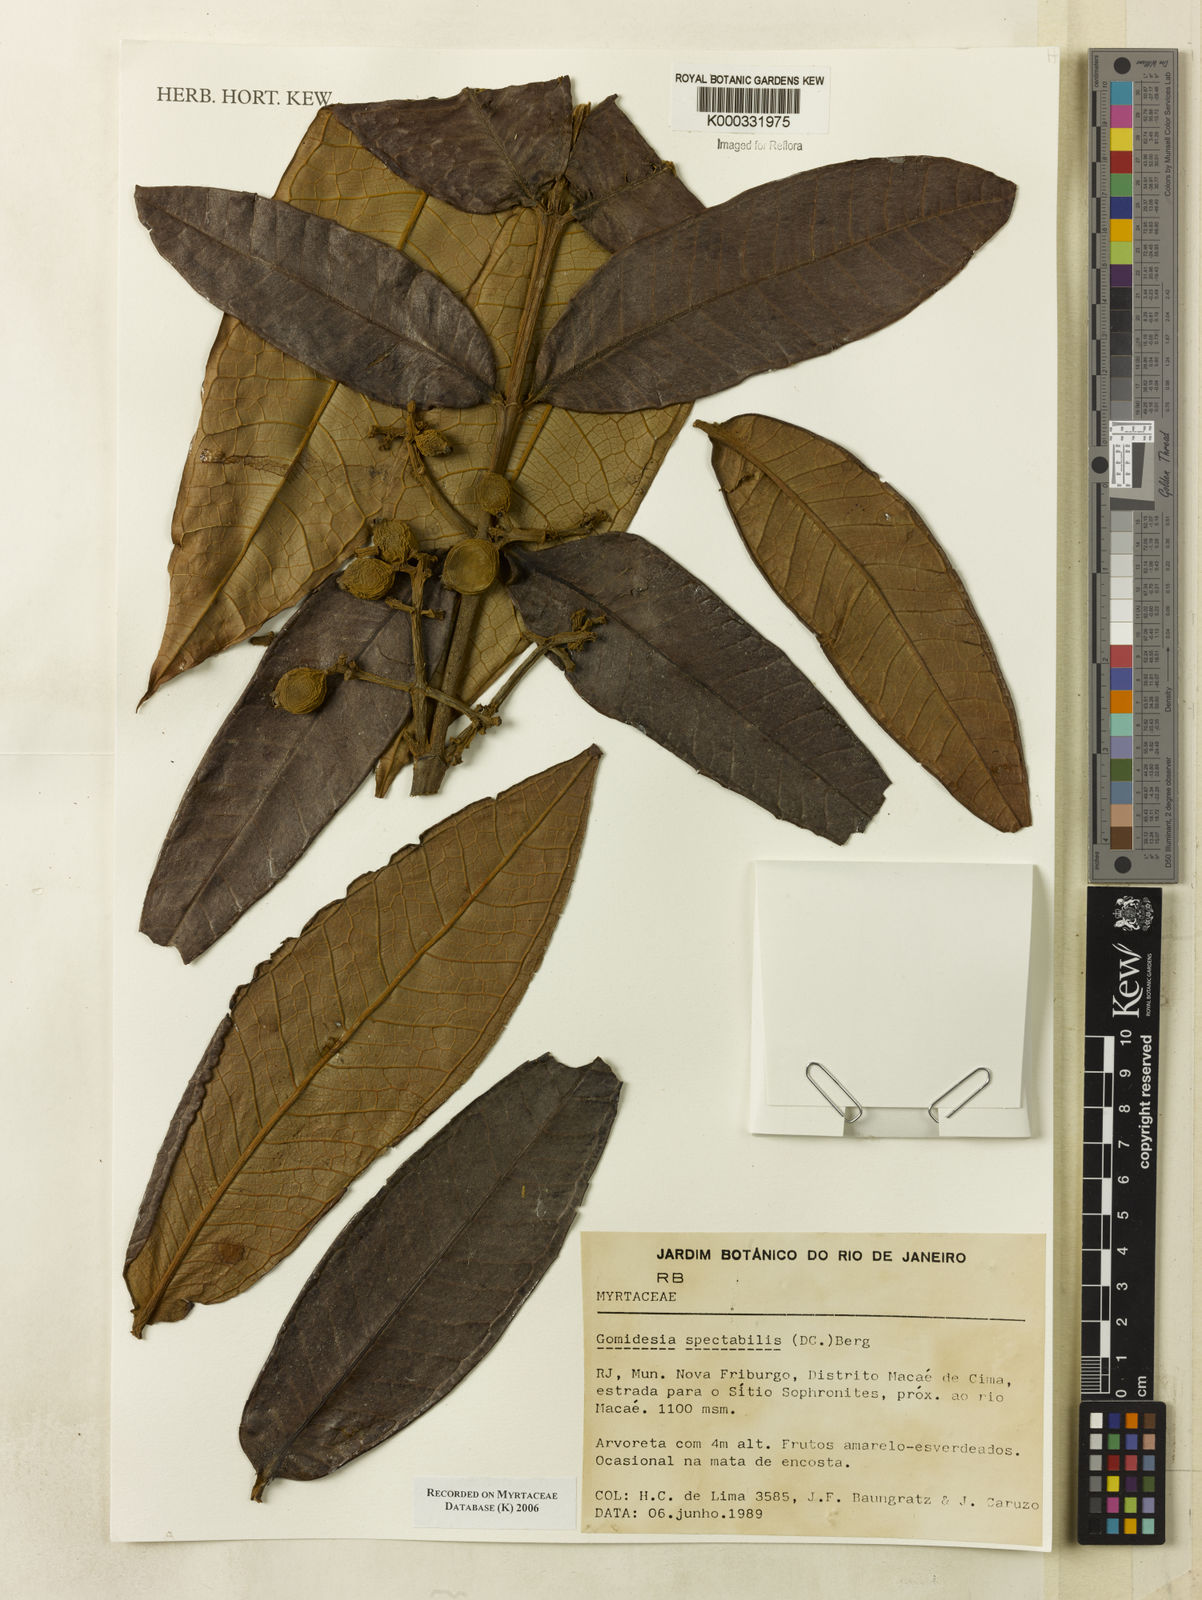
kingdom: Plantae
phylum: Tracheophyta
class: Magnoliopsida
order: Myrtales
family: Myrtaceae
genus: Myrcia
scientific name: Myrcia spectabilis
